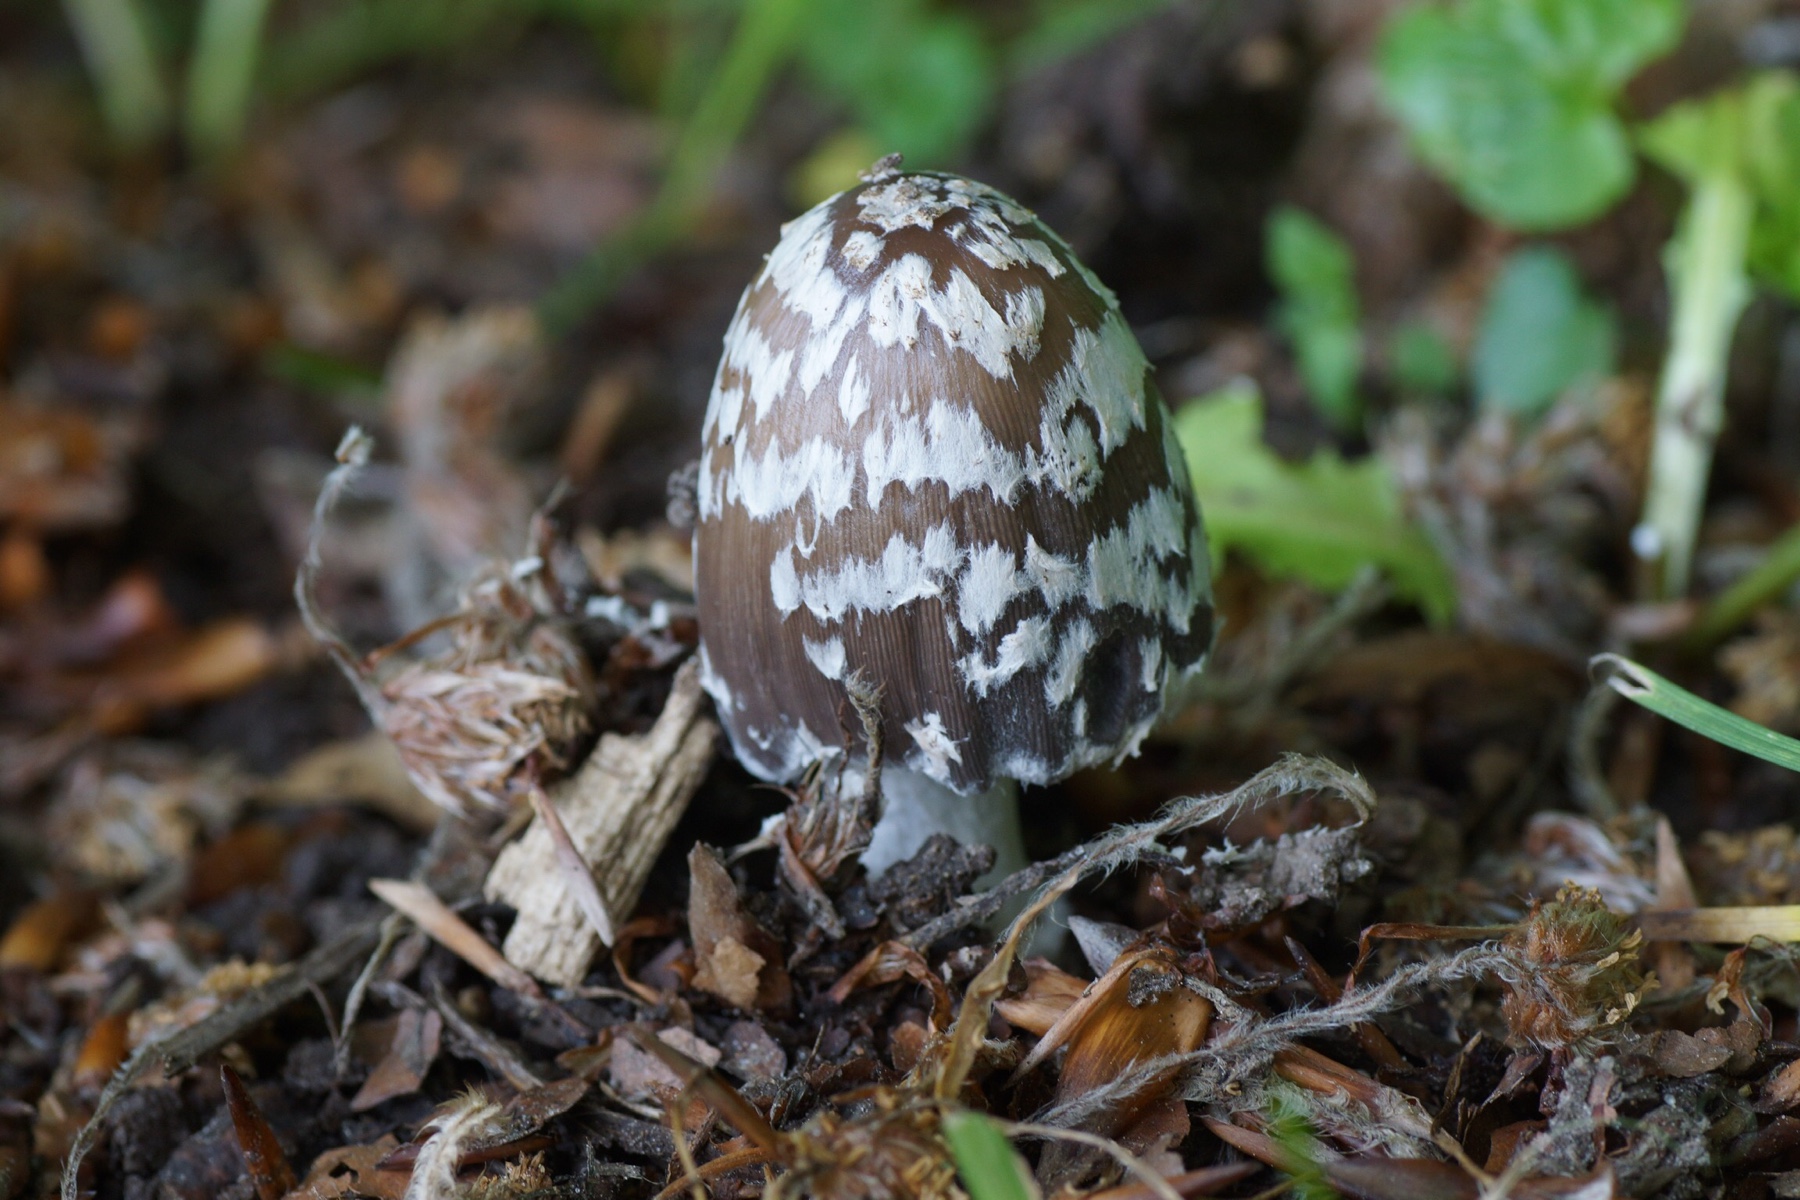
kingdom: Fungi
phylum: Basidiomycota
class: Agaricomycetes
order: Agaricales
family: Psathyrellaceae
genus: Coprinopsis
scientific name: Coprinopsis picacea
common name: skade-blækhat
